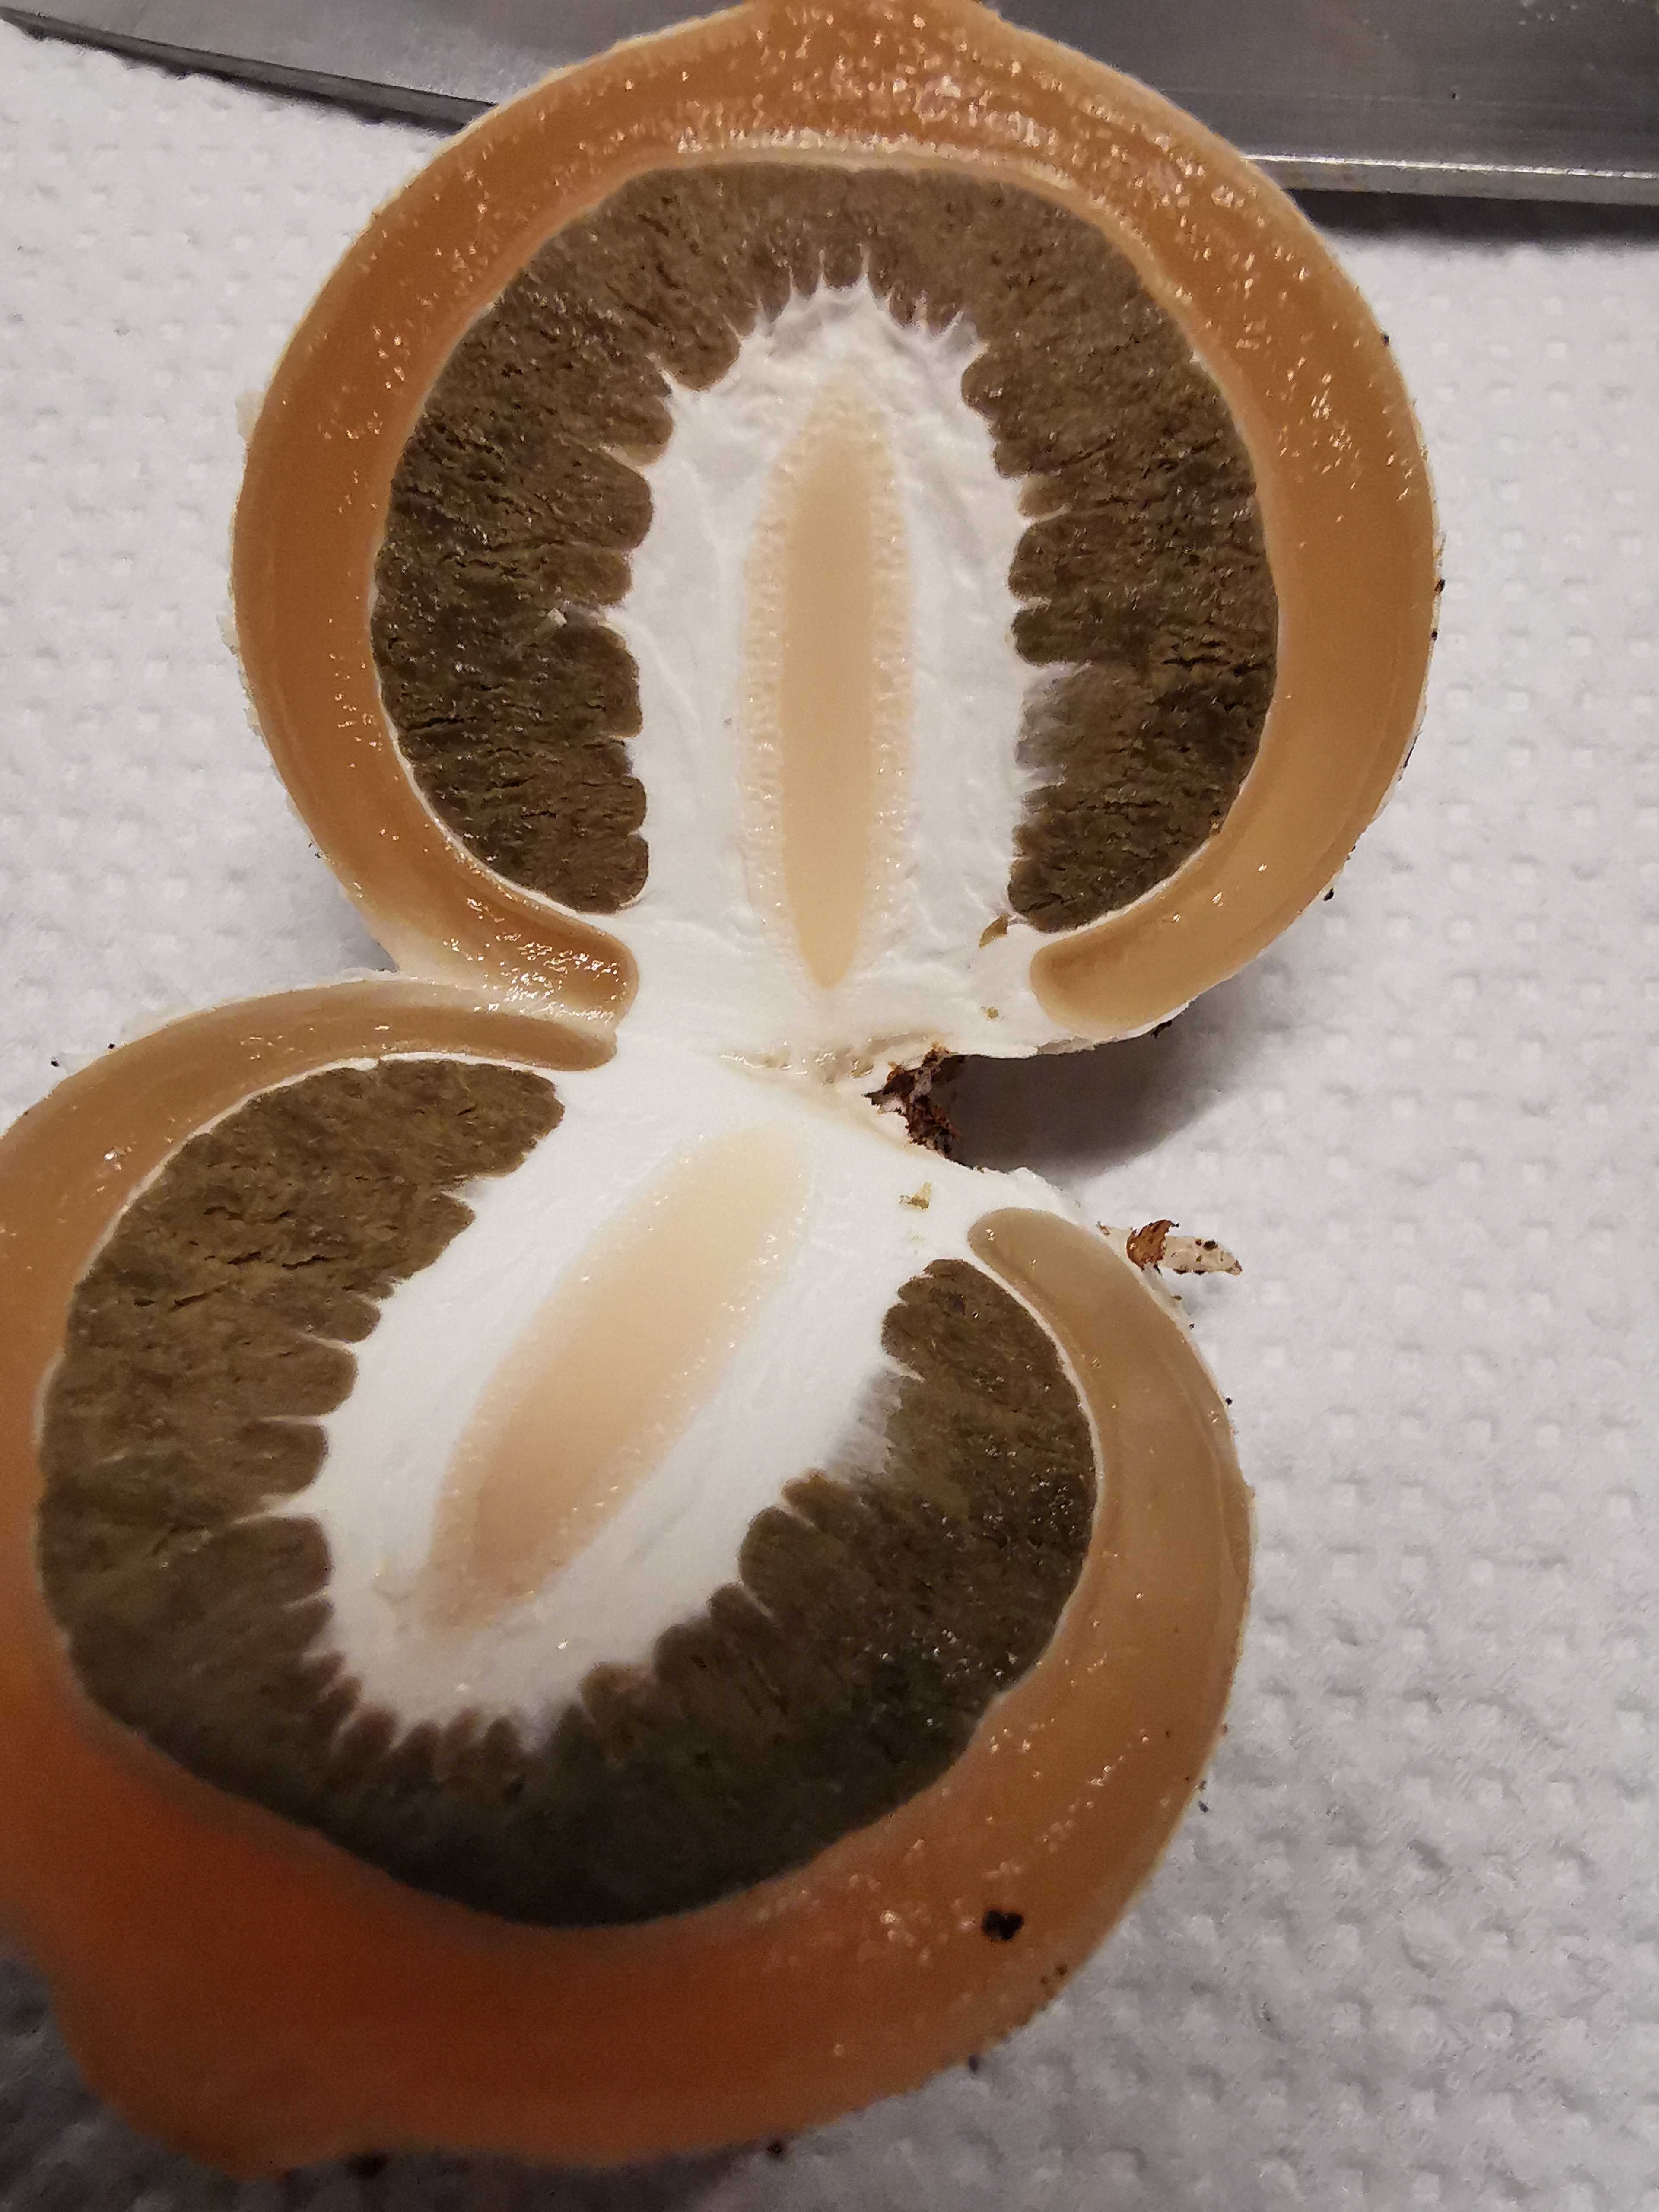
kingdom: Fungi
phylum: Basidiomycota
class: Agaricomycetes
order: Phallales
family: Phallaceae
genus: Phallus
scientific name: Phallus impudicus
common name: almindelig stinksvamp
